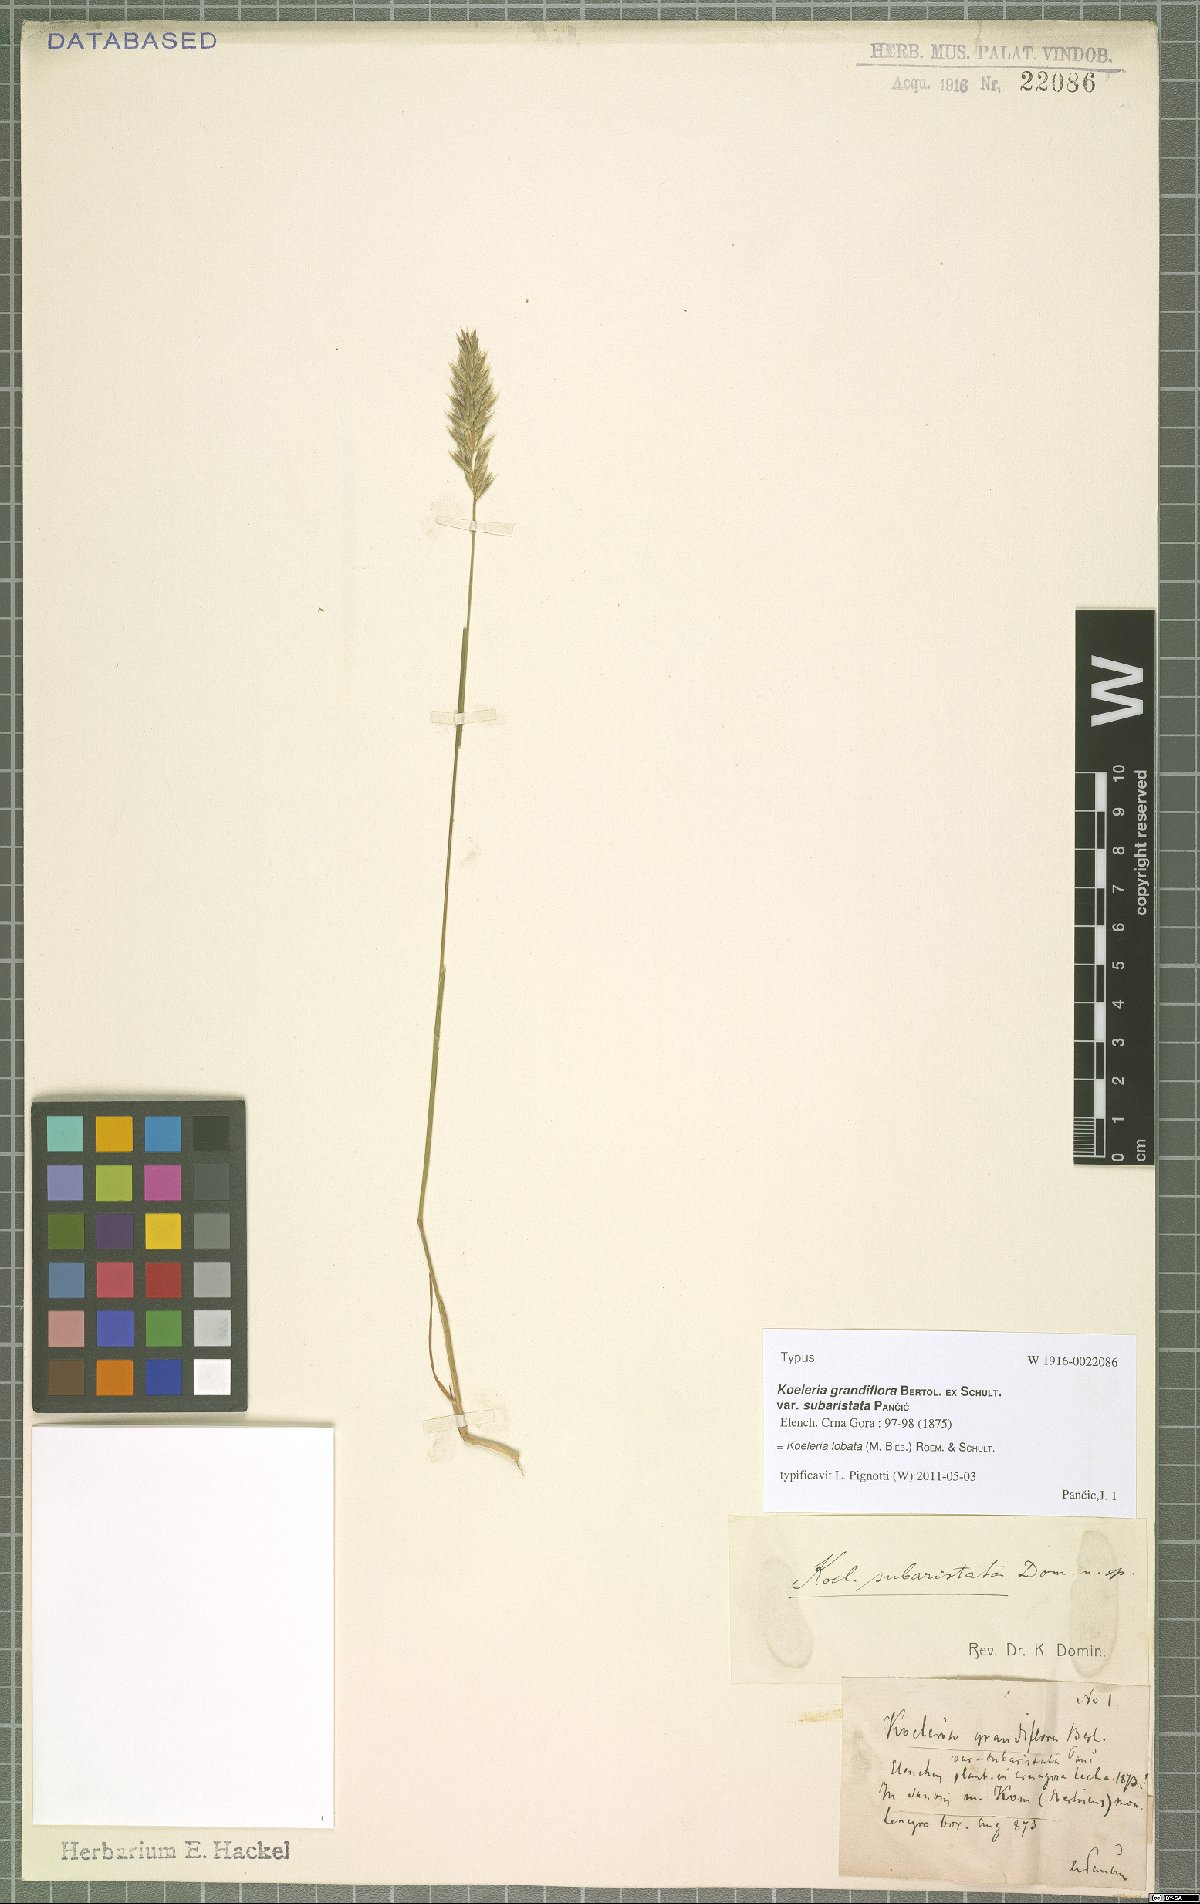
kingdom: Plantae
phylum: Tracheophyta
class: Liliopsida
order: Poales
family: Poaceae
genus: Koeleria
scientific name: Koeleria brevis
